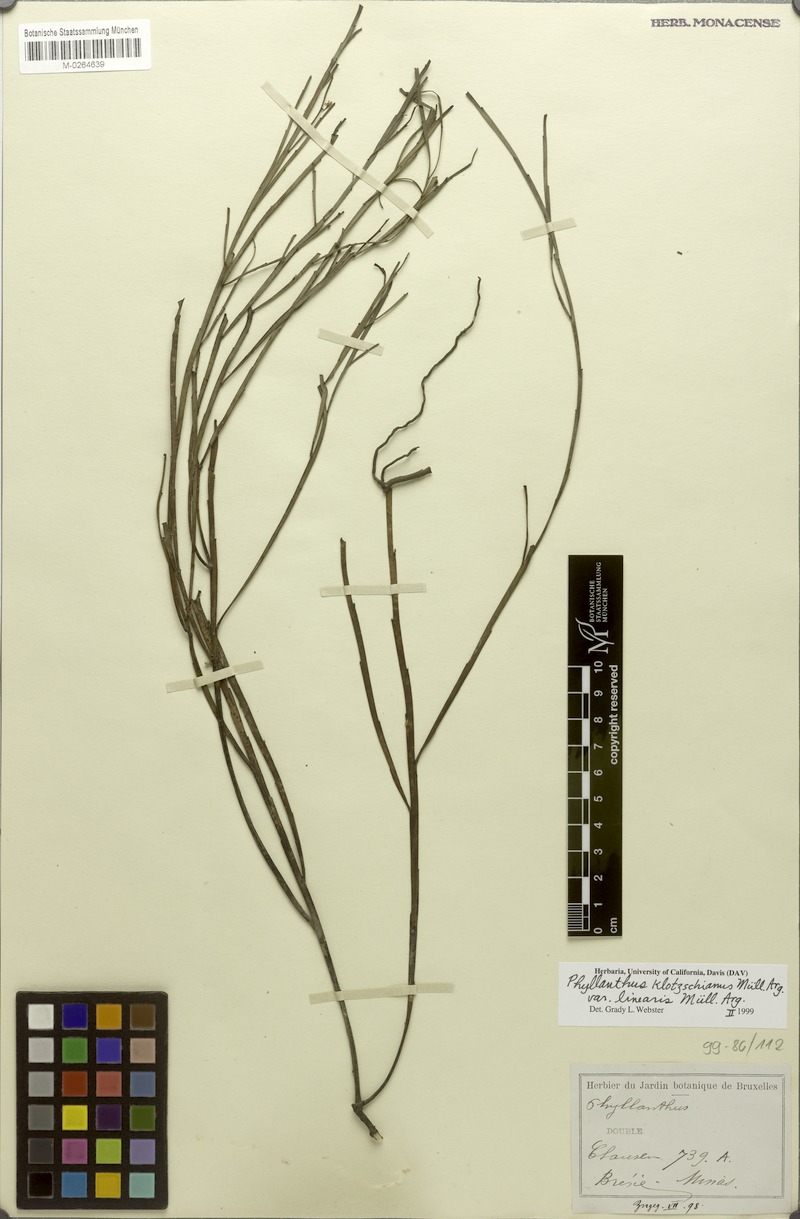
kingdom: Plantae
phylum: Tracheophyta
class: Magnoliopsida
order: Malpighiales
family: Phyllanthaceae
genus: Phyllanthus
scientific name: Phyllanthus robustus
